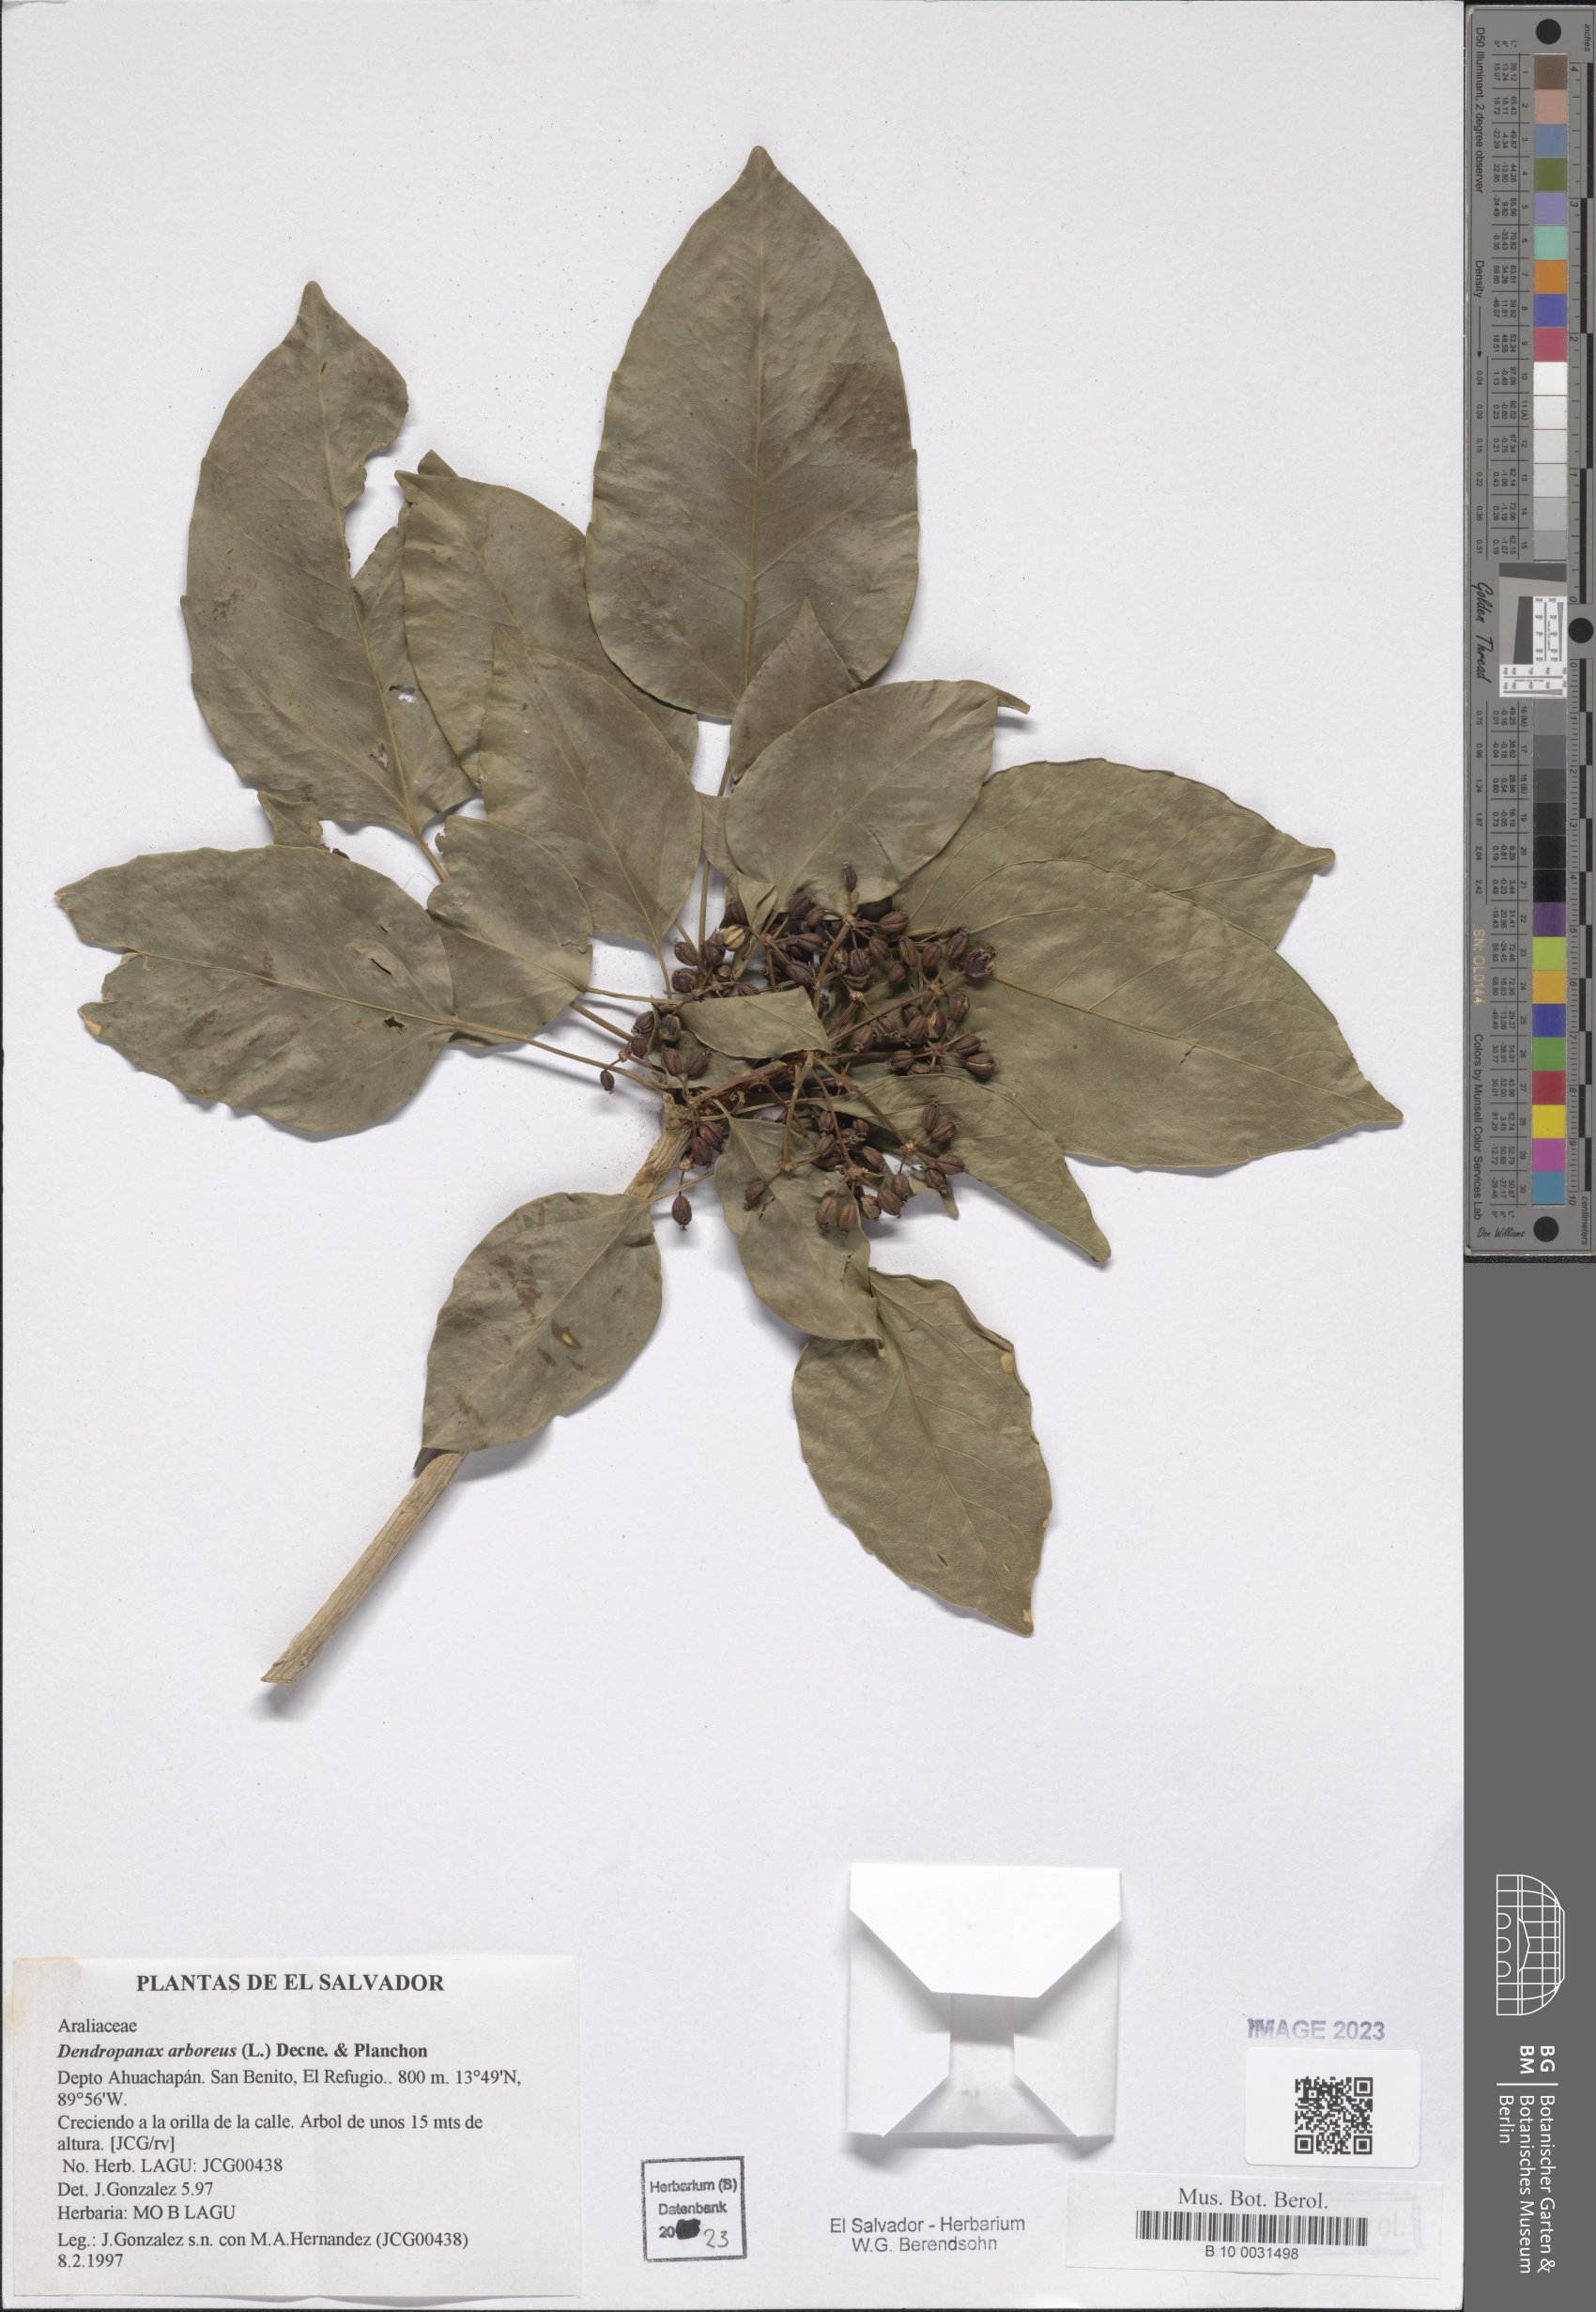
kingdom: Plantae
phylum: Tracheophyta
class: Magnoliopsida
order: Apiales
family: Araliaceae
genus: Dendropanax
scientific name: Dendropanax arboreus
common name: Potato-wood
